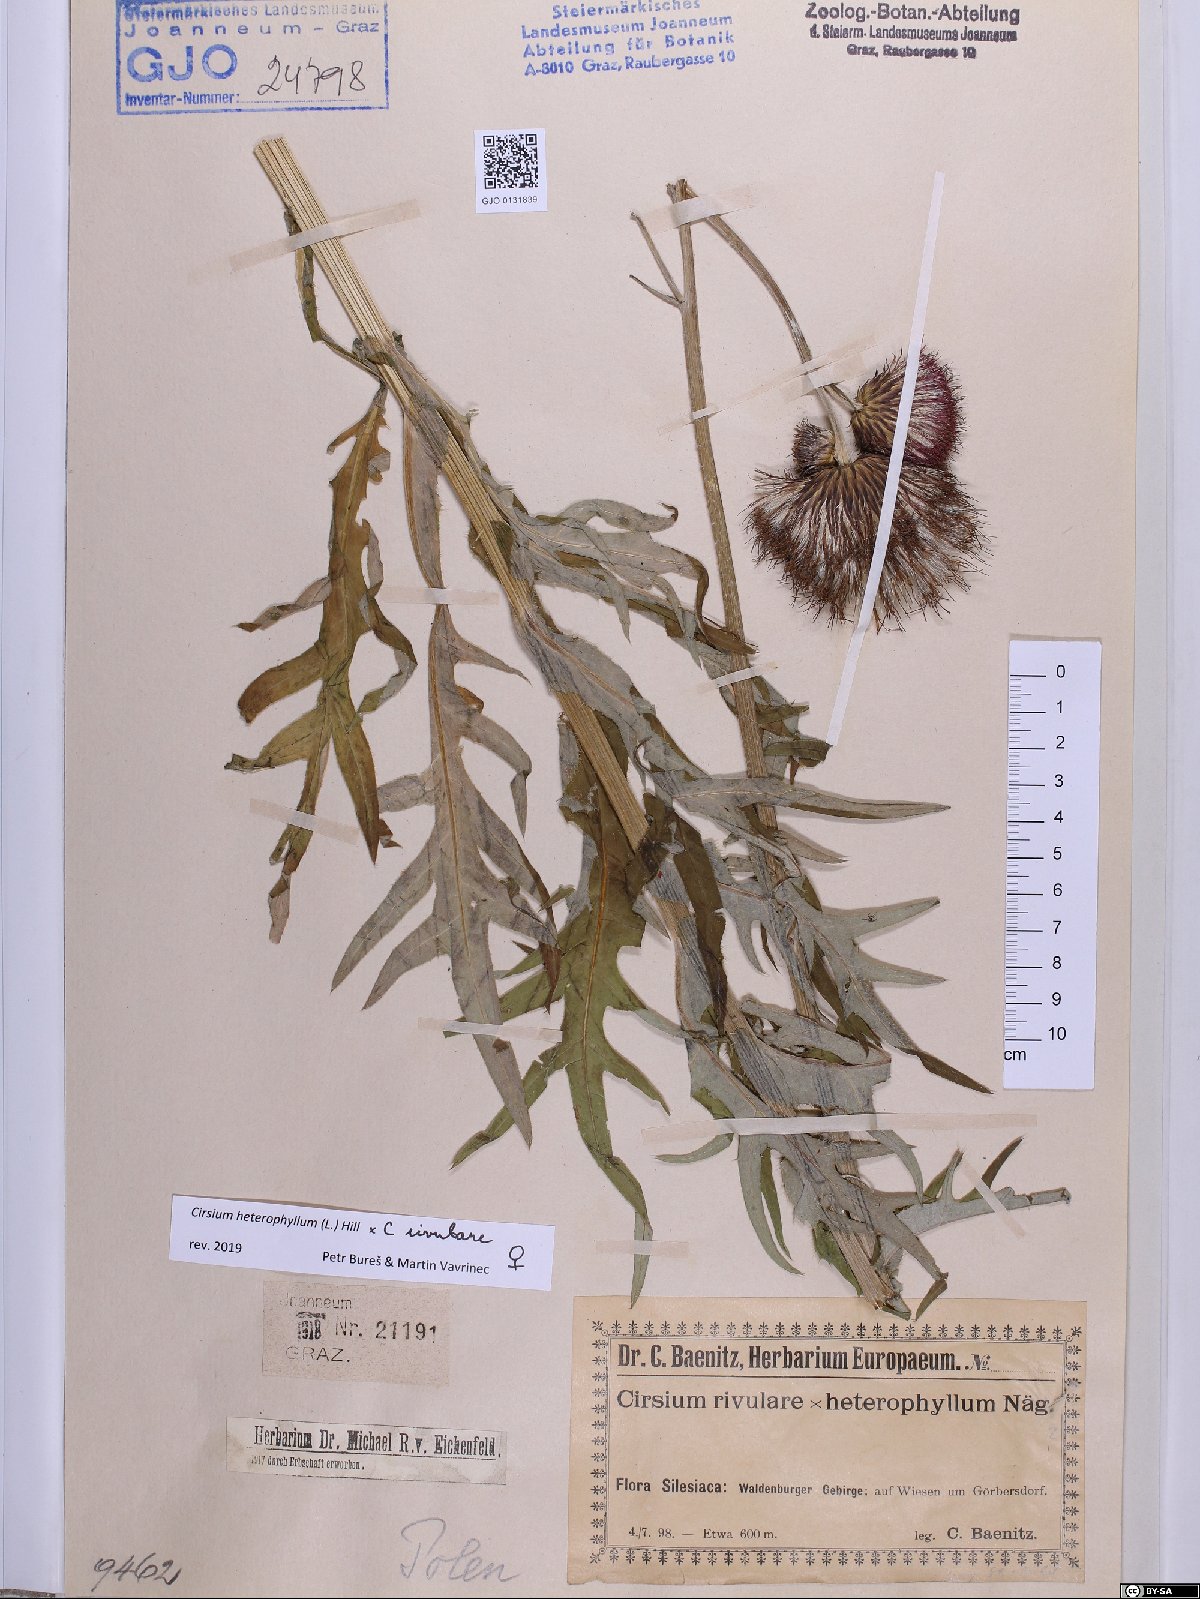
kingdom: Plantae
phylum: Tracheophyta
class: Magnoliopsida
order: Asterales
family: Asteraceae
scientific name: Asteraceae
